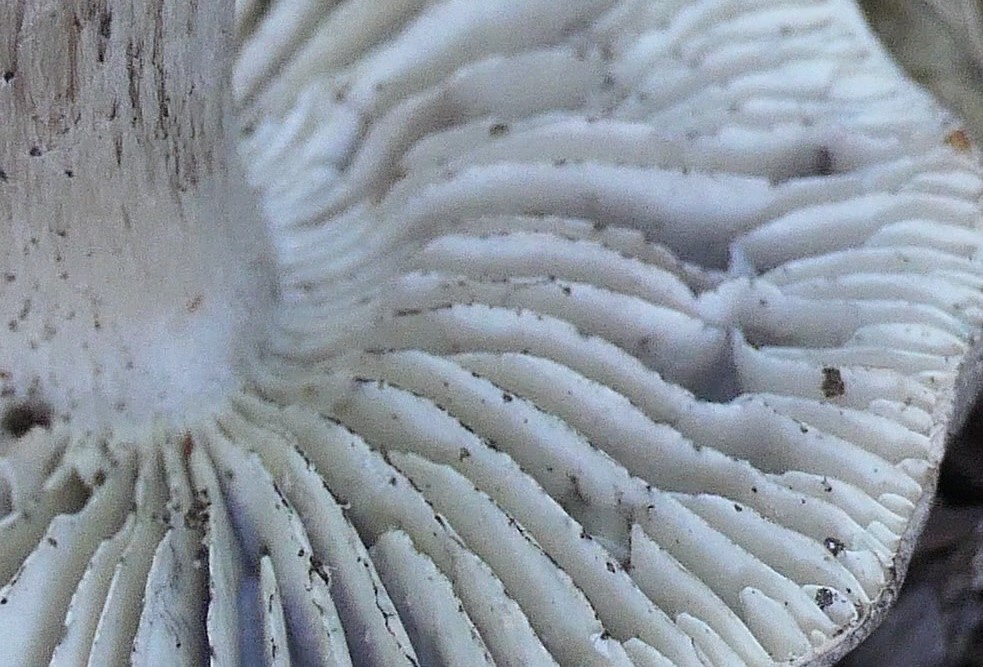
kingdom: Fungi
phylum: Basidiomycota
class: Agaricomycetes
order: Agaricales
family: Tricholomataceae
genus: Tricholoma
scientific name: Tricholoma sciodes
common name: stribet ridderhat
